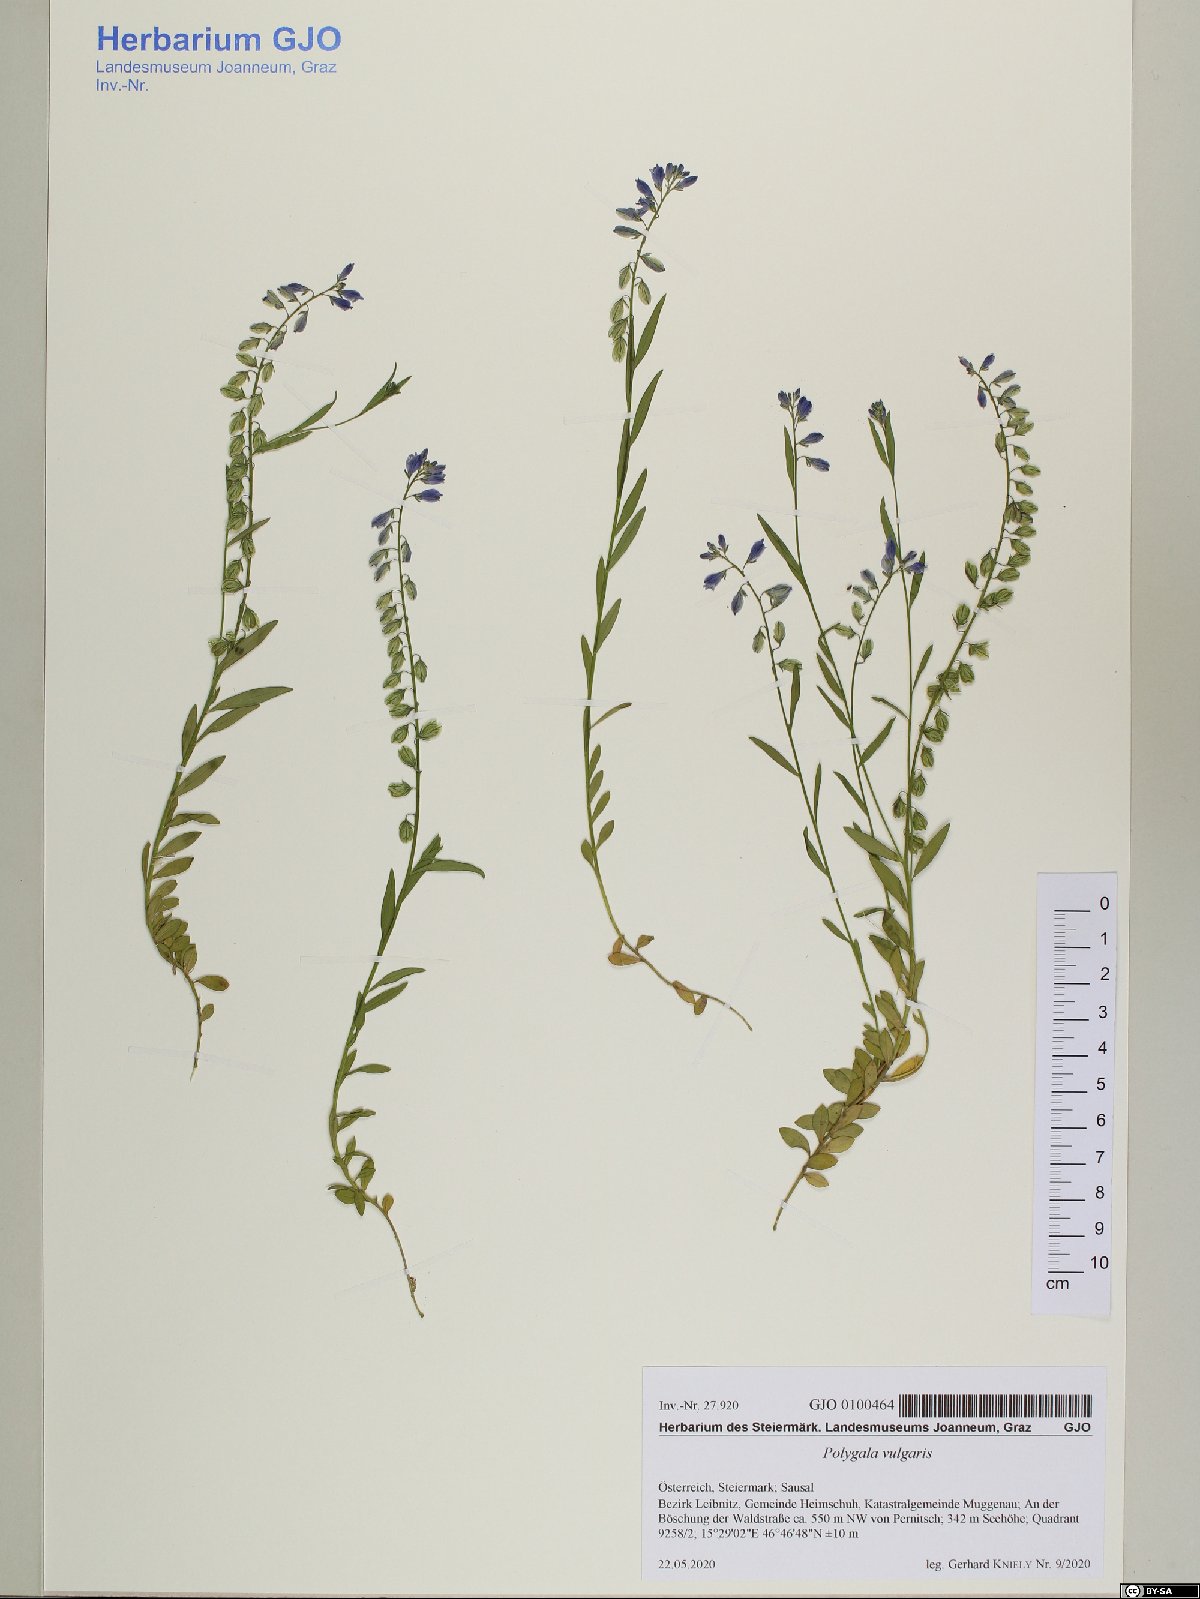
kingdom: Plantae
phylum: Tracheophyta
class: Magnoliopsida
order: Fabales
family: Polygalaceae
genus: Polygala
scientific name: Polygala vulgaris
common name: Common milkwort
